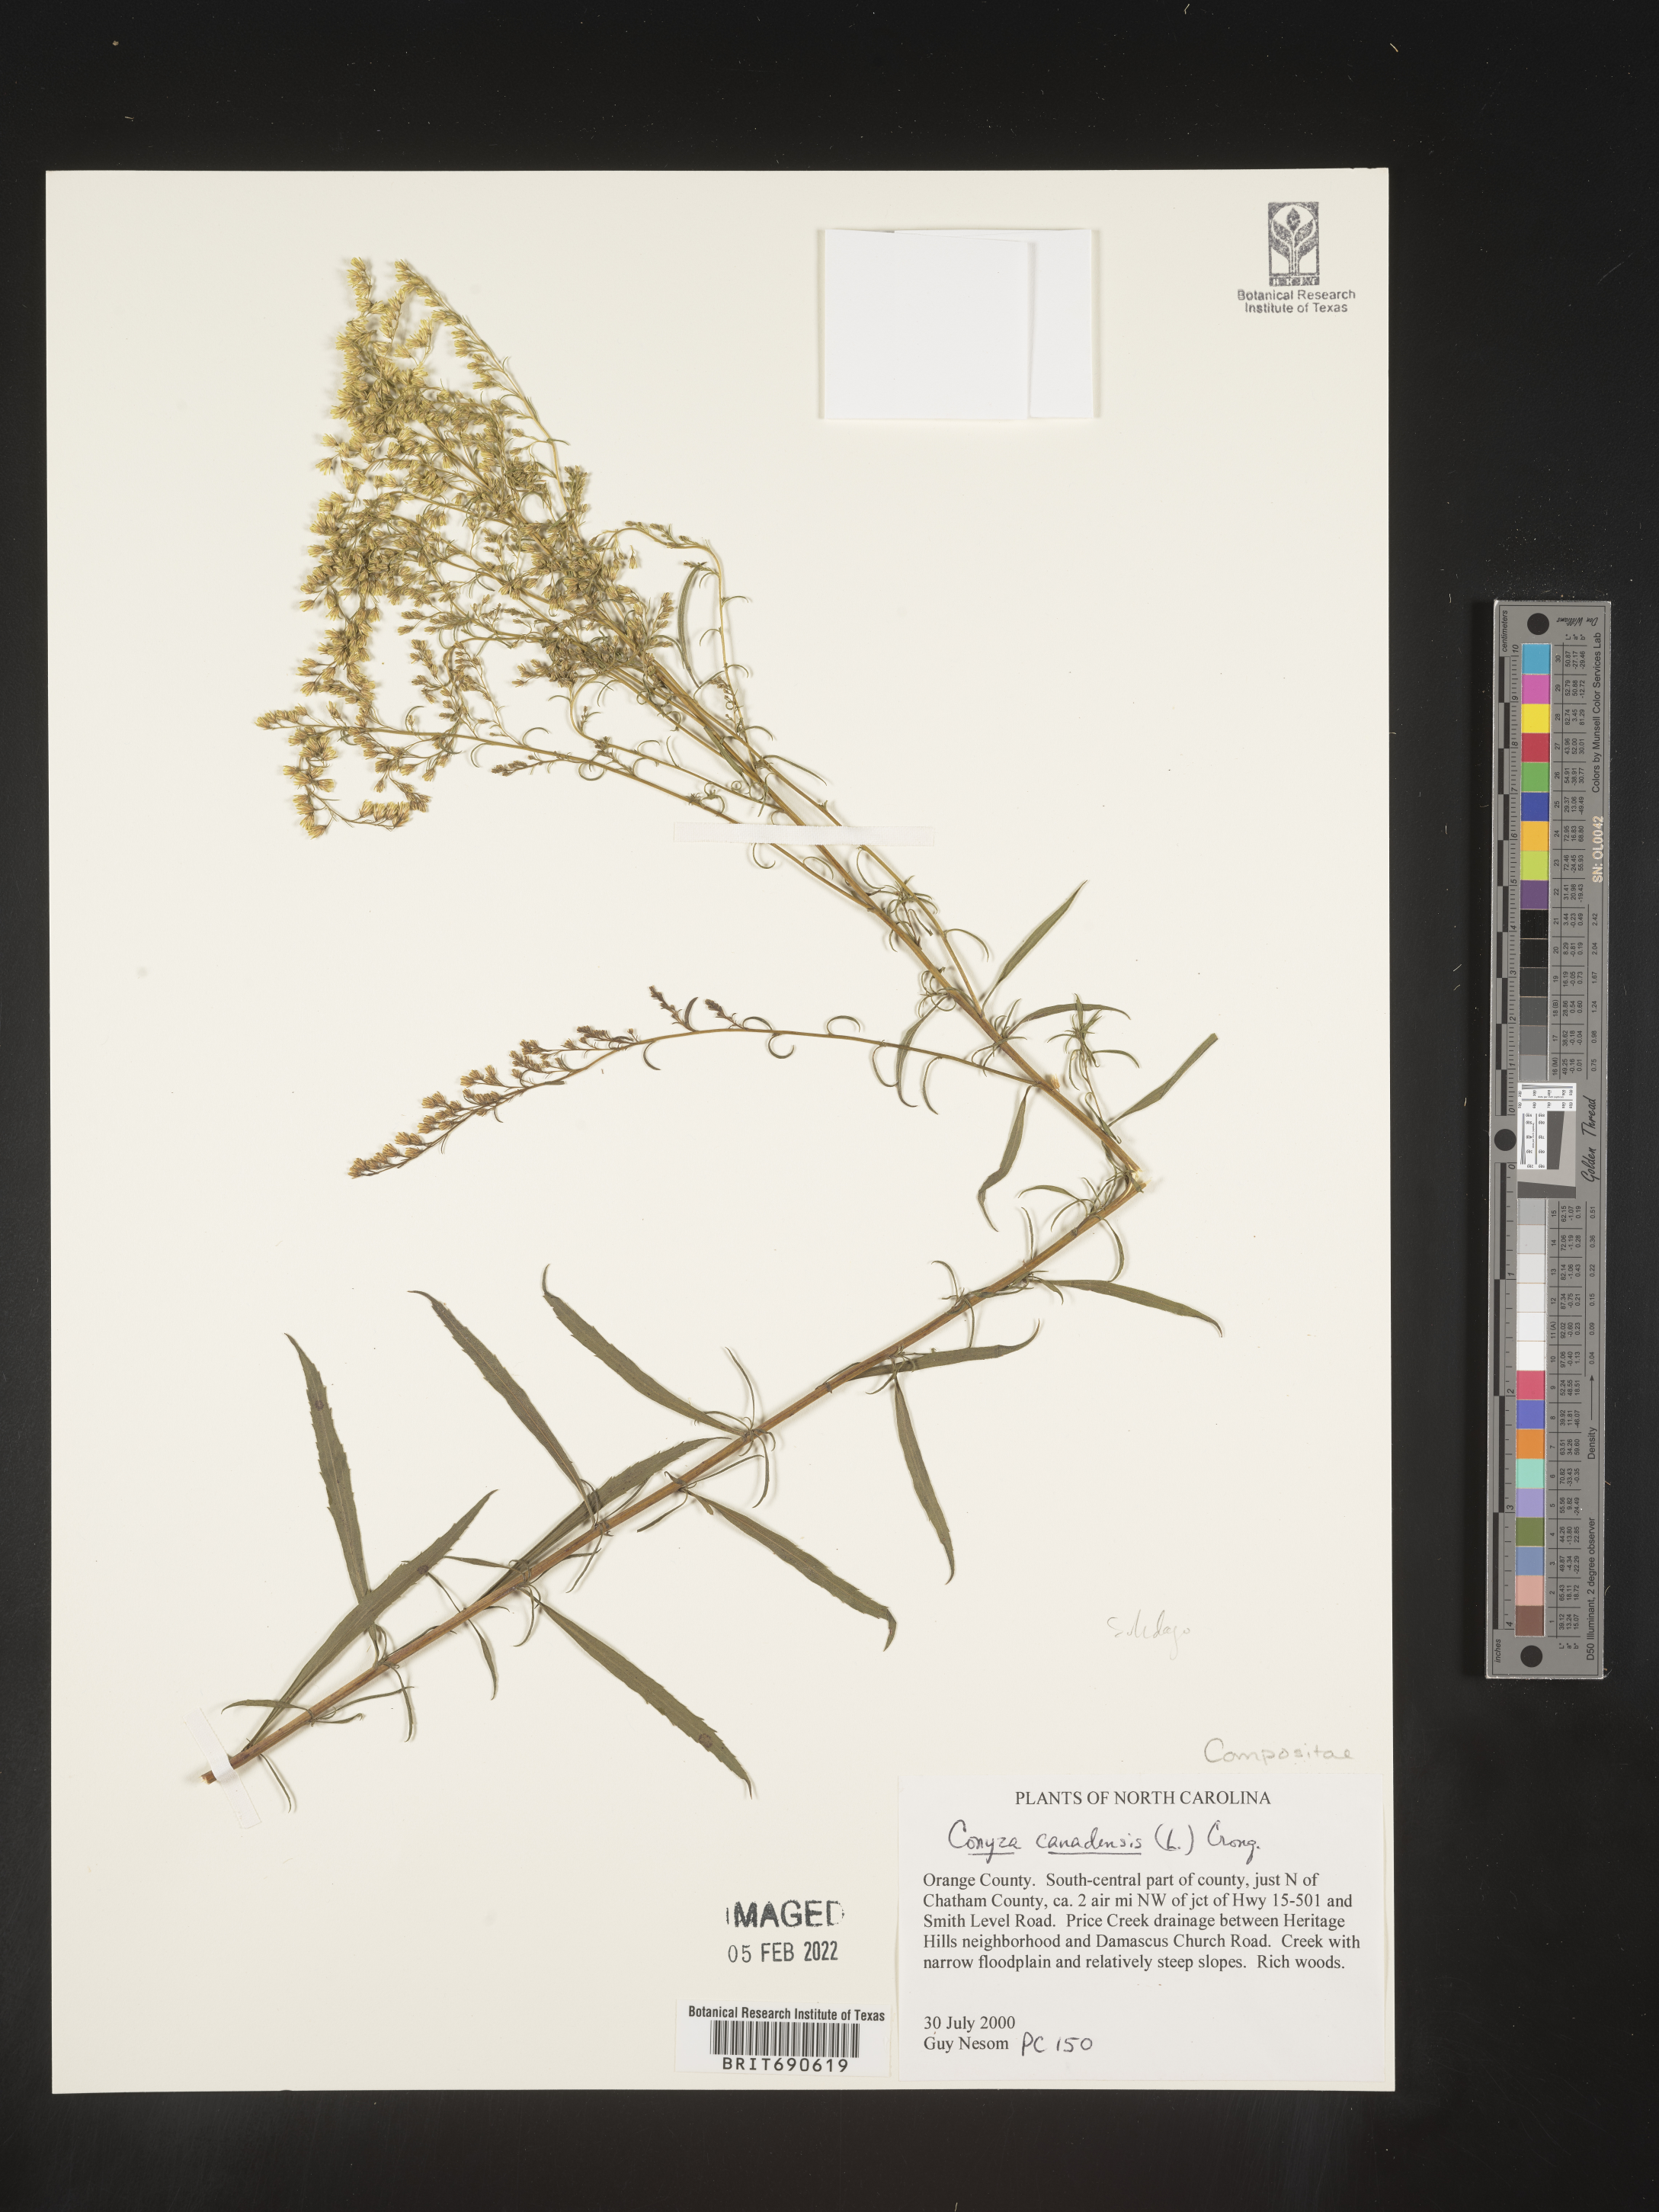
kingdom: Plantae
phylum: Tracheophyta
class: Magnoliopsida
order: Asterales
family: Asteraceae
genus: Erigeron
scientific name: Erigeron canadensis
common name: Canadian fleabane
